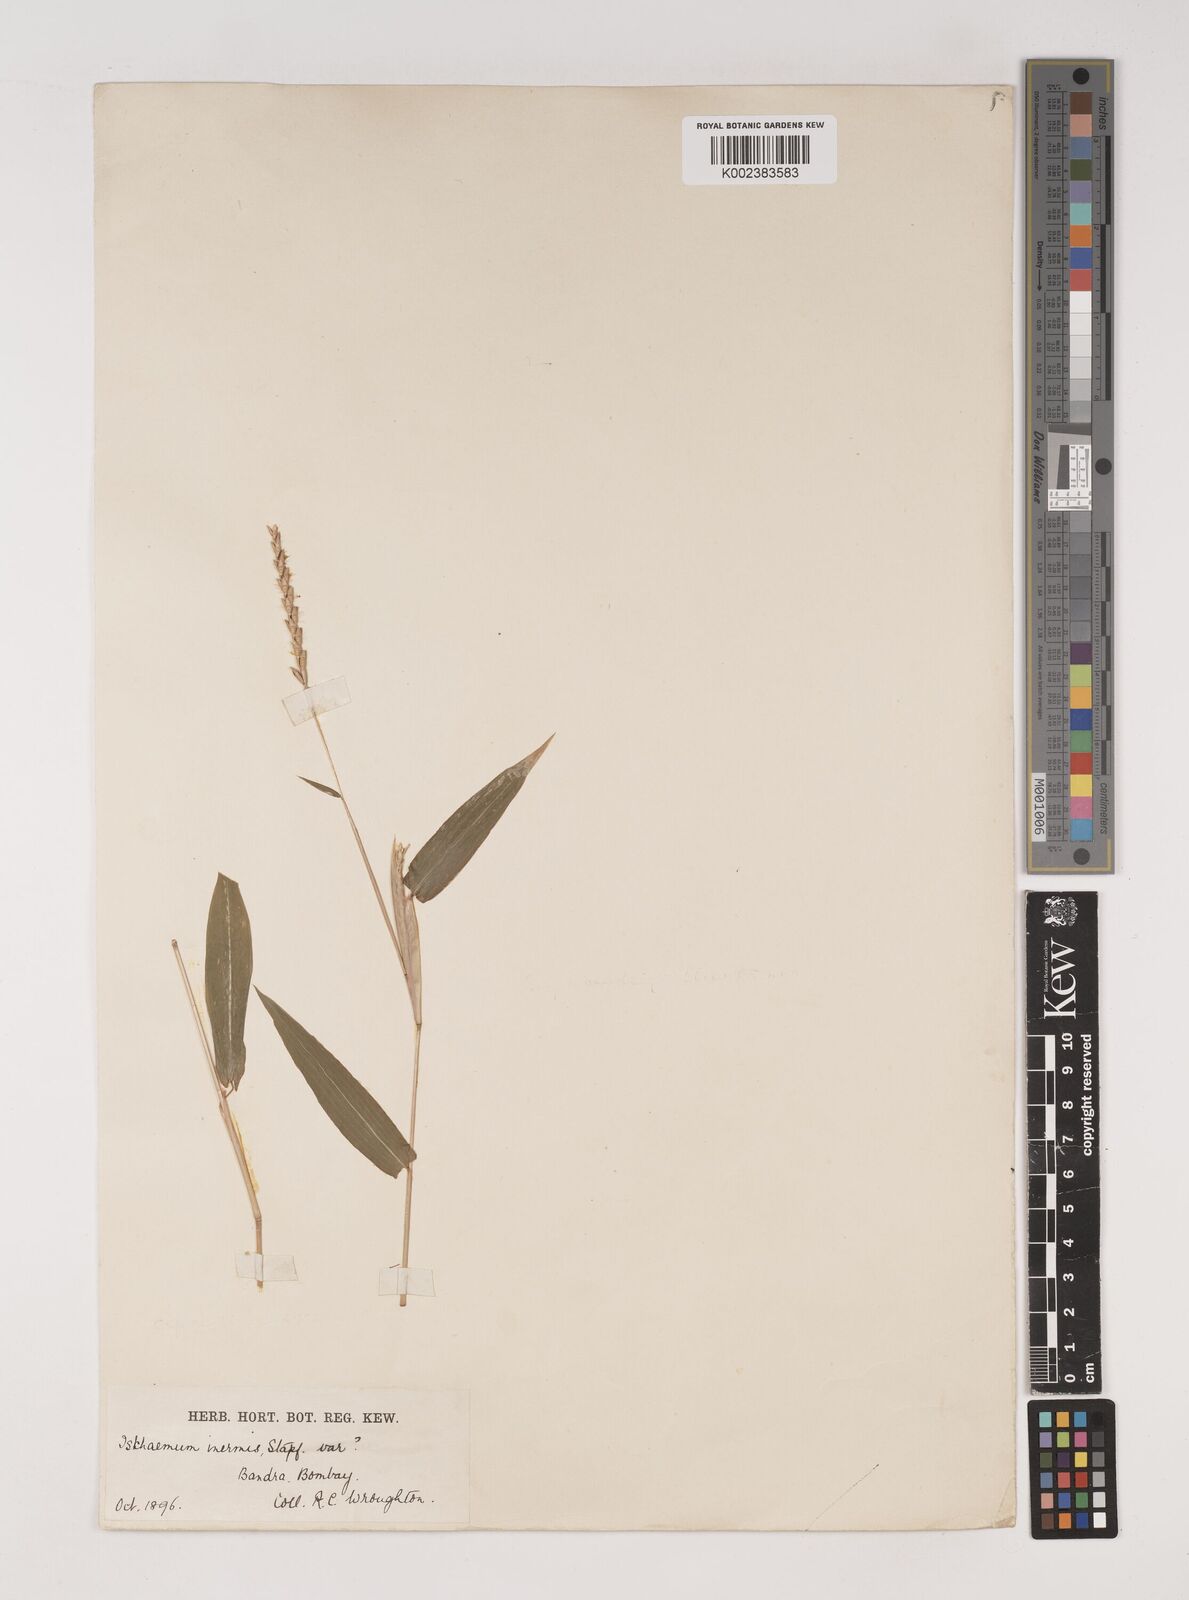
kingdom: Plantae
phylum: Tracheophyta
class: Liliopsida
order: Poales
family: Poaceae
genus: Ischaemum
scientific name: Ischaemum huegelii
